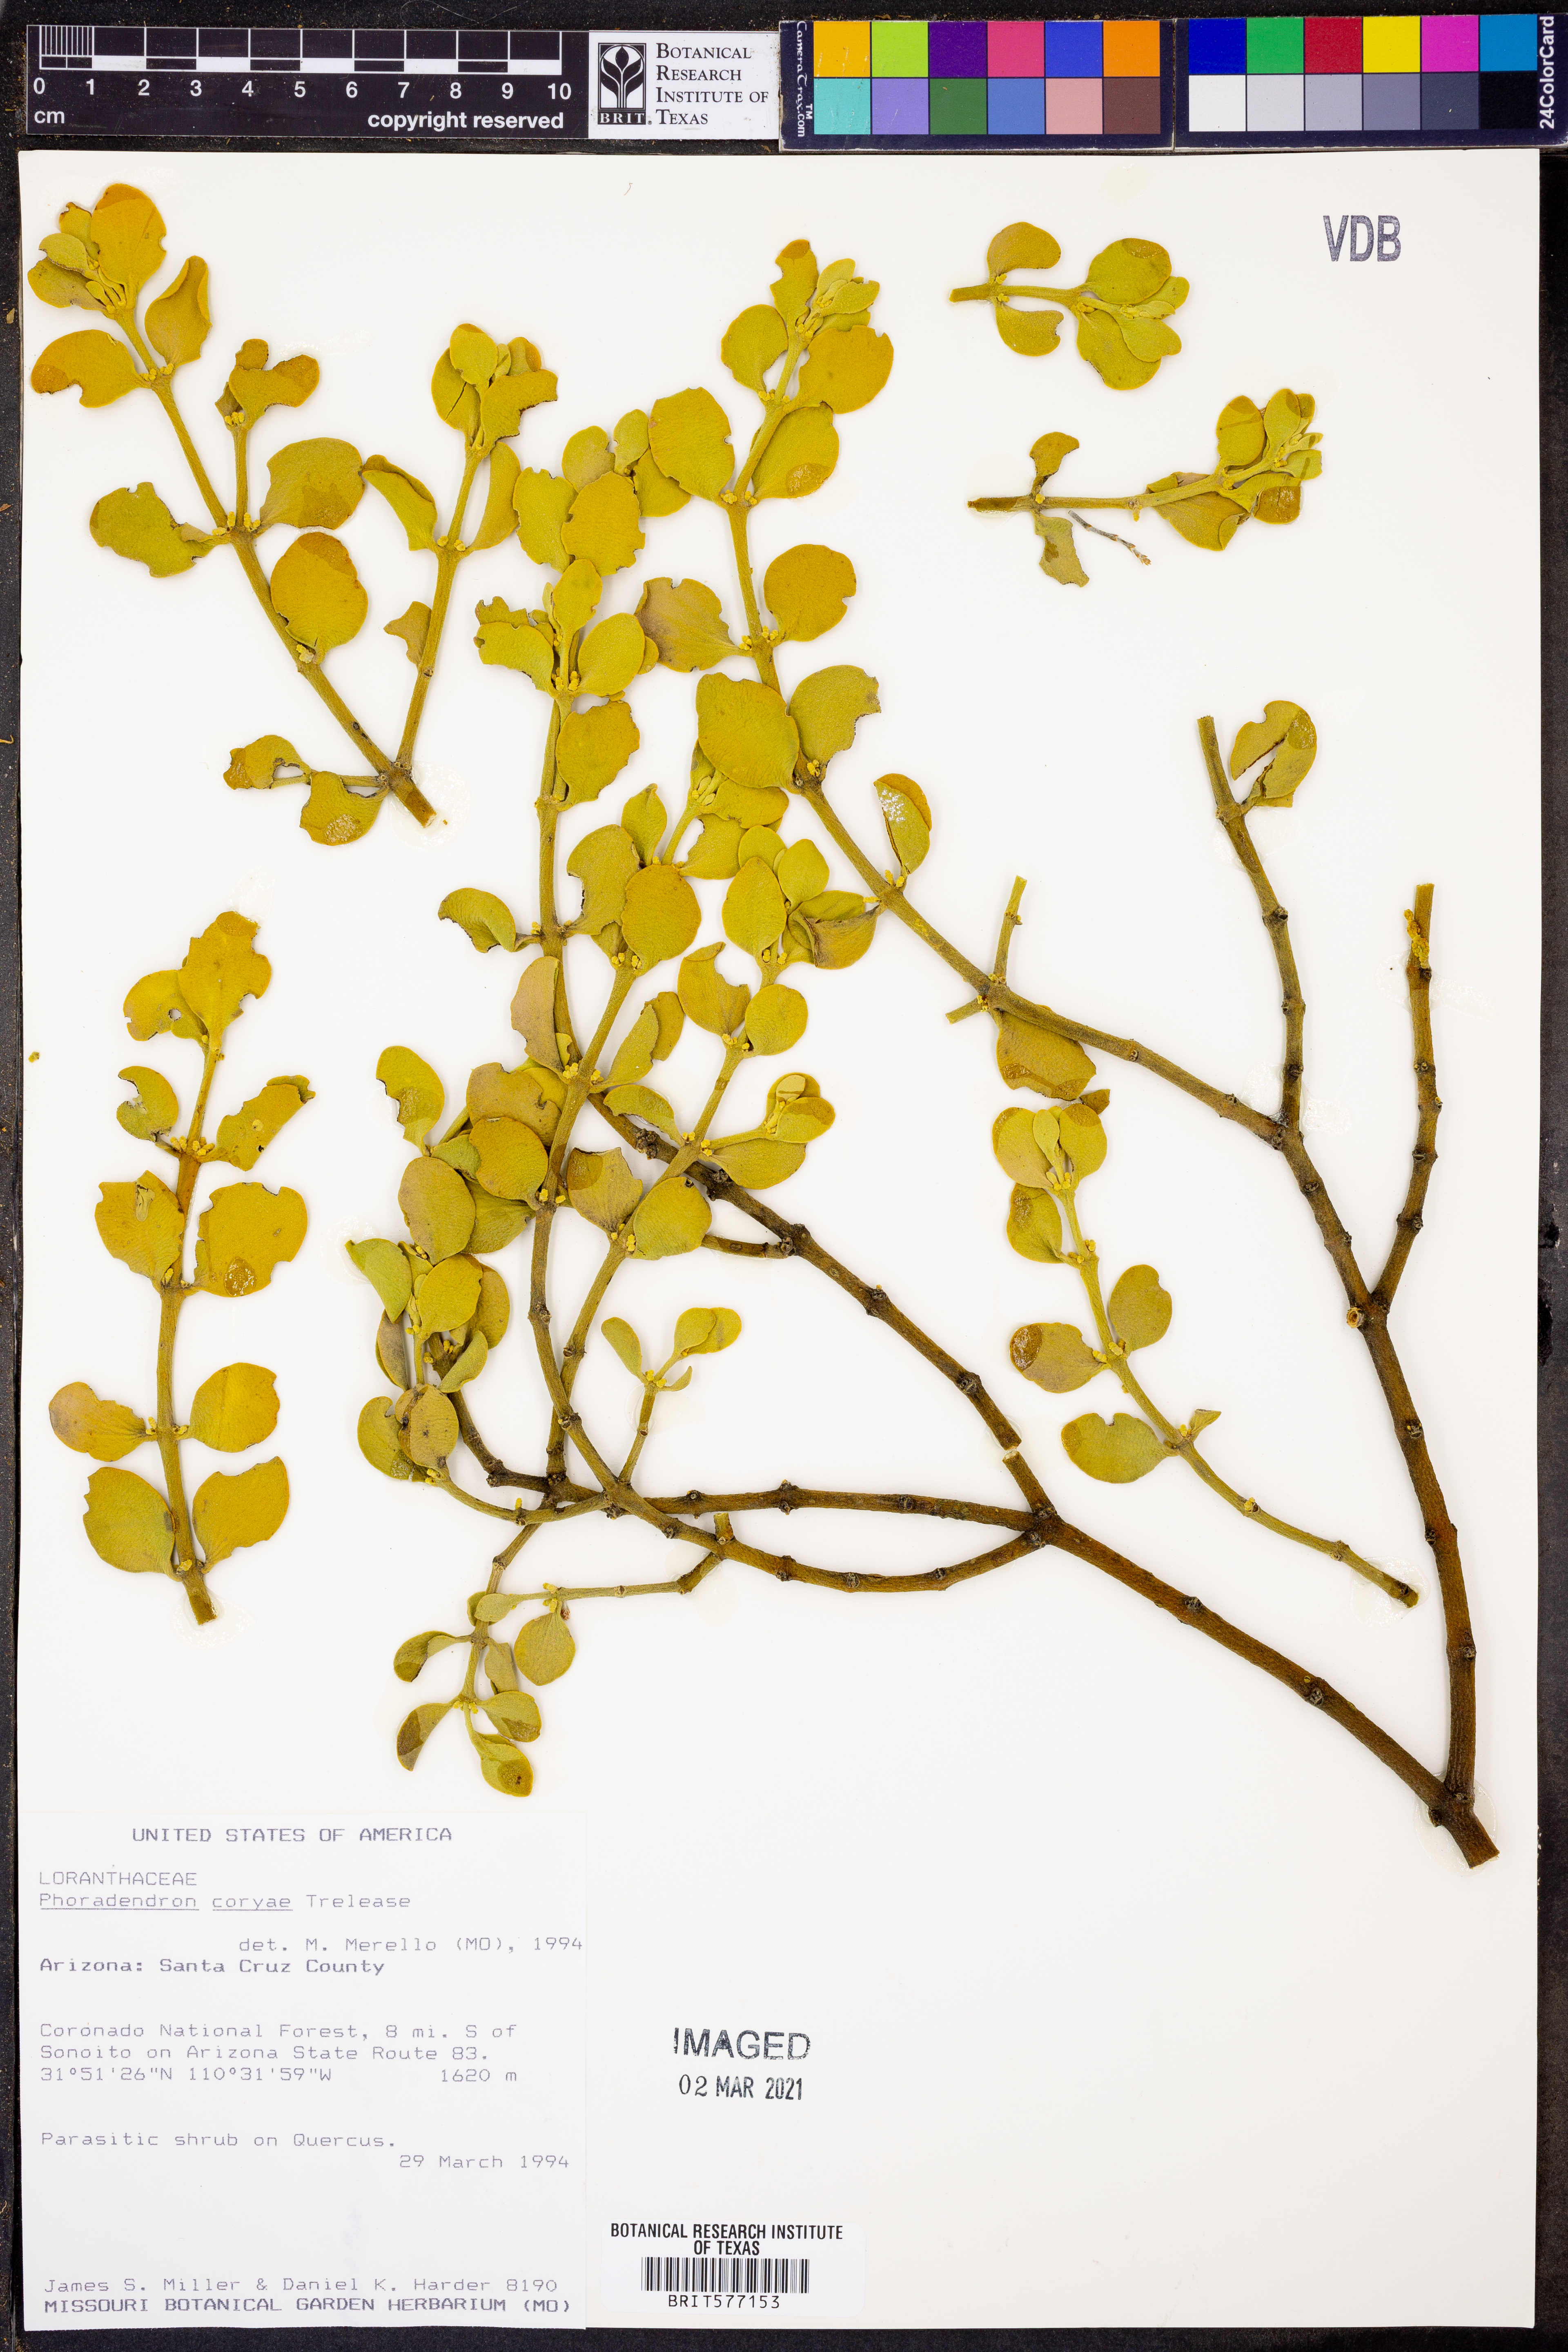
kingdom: Plantae
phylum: Tracheophyta
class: Magnoliopsida
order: Santalales
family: Viscaceae
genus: Phoradendron
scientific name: Phoradendron coryae
